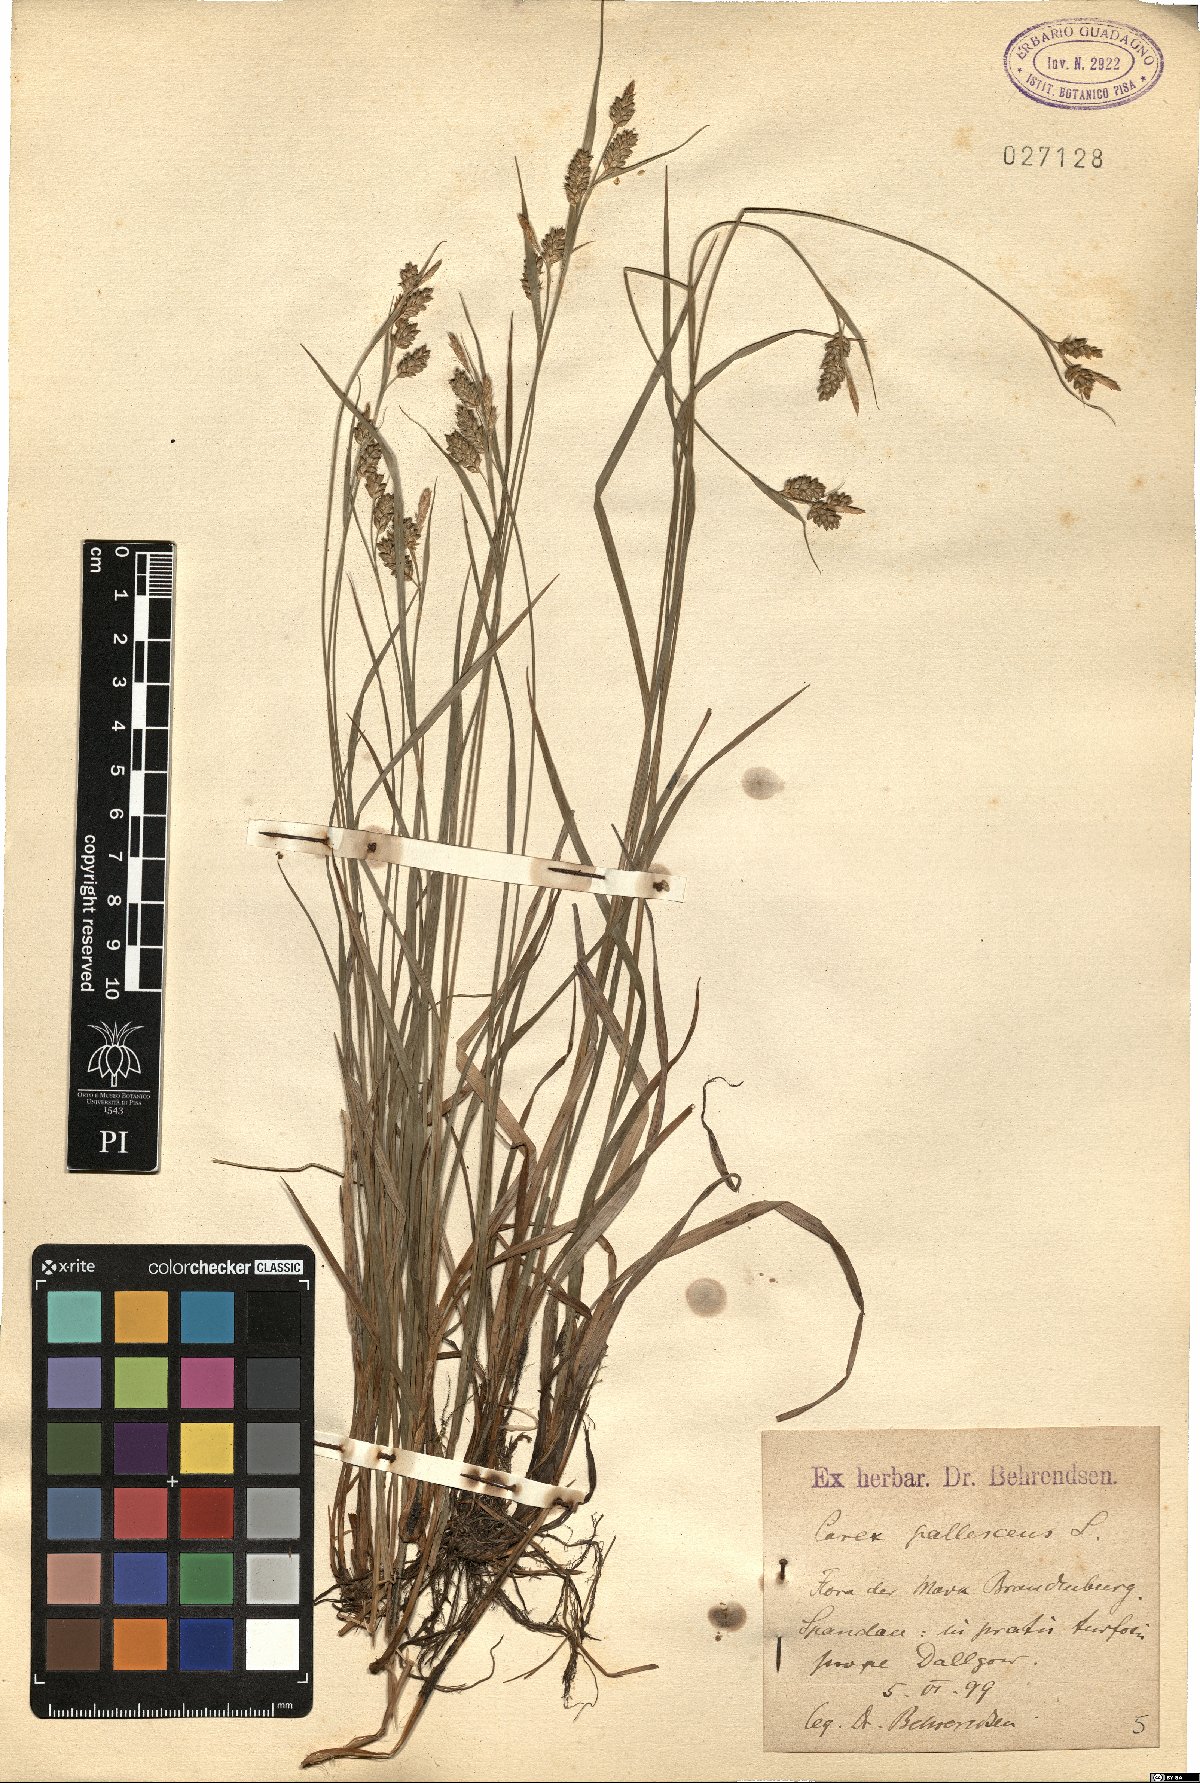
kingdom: Plantae
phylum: Tracheophyta
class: Liliopsida
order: Poales
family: Cyperaceae
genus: Carex
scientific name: Carex pallescens
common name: Pale sedge
